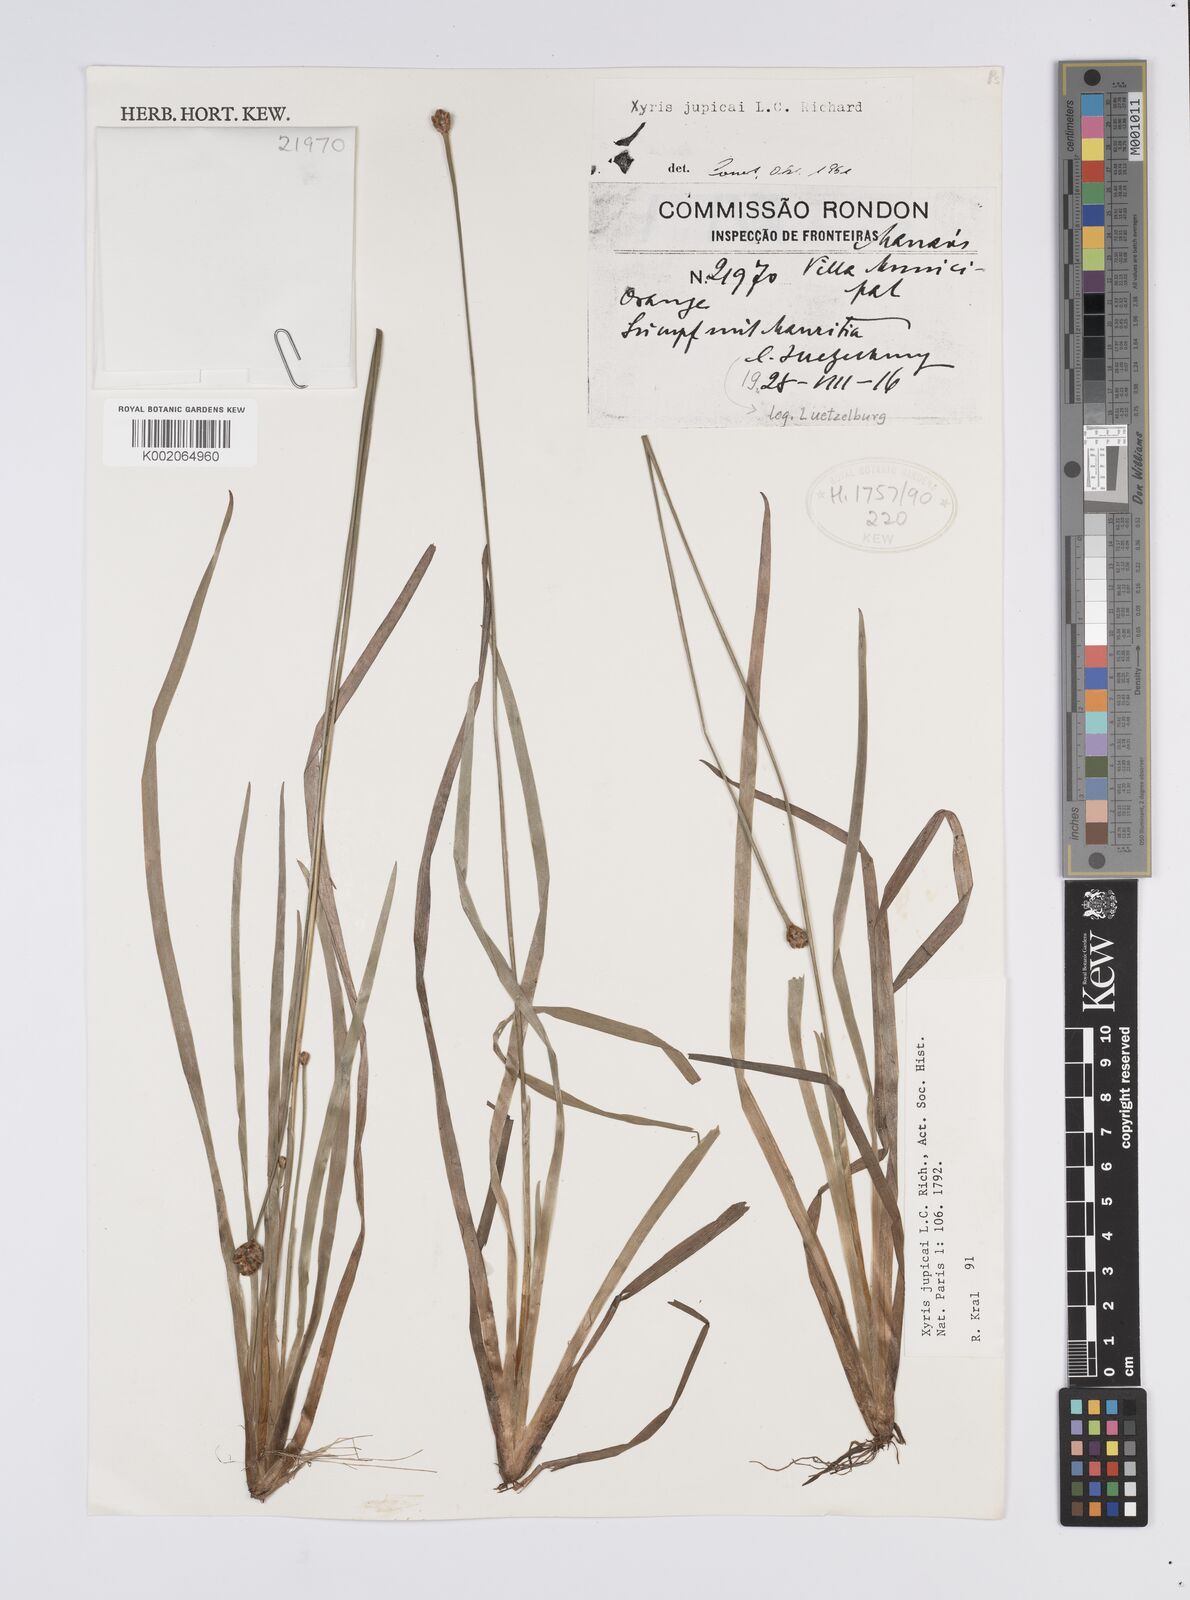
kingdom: Plantae
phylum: Tracheophyta
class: Liliopsida
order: Poales
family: Xyridaceae
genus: Xyris
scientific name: Xyris jupicai
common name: Richard's yelloweyed grass
